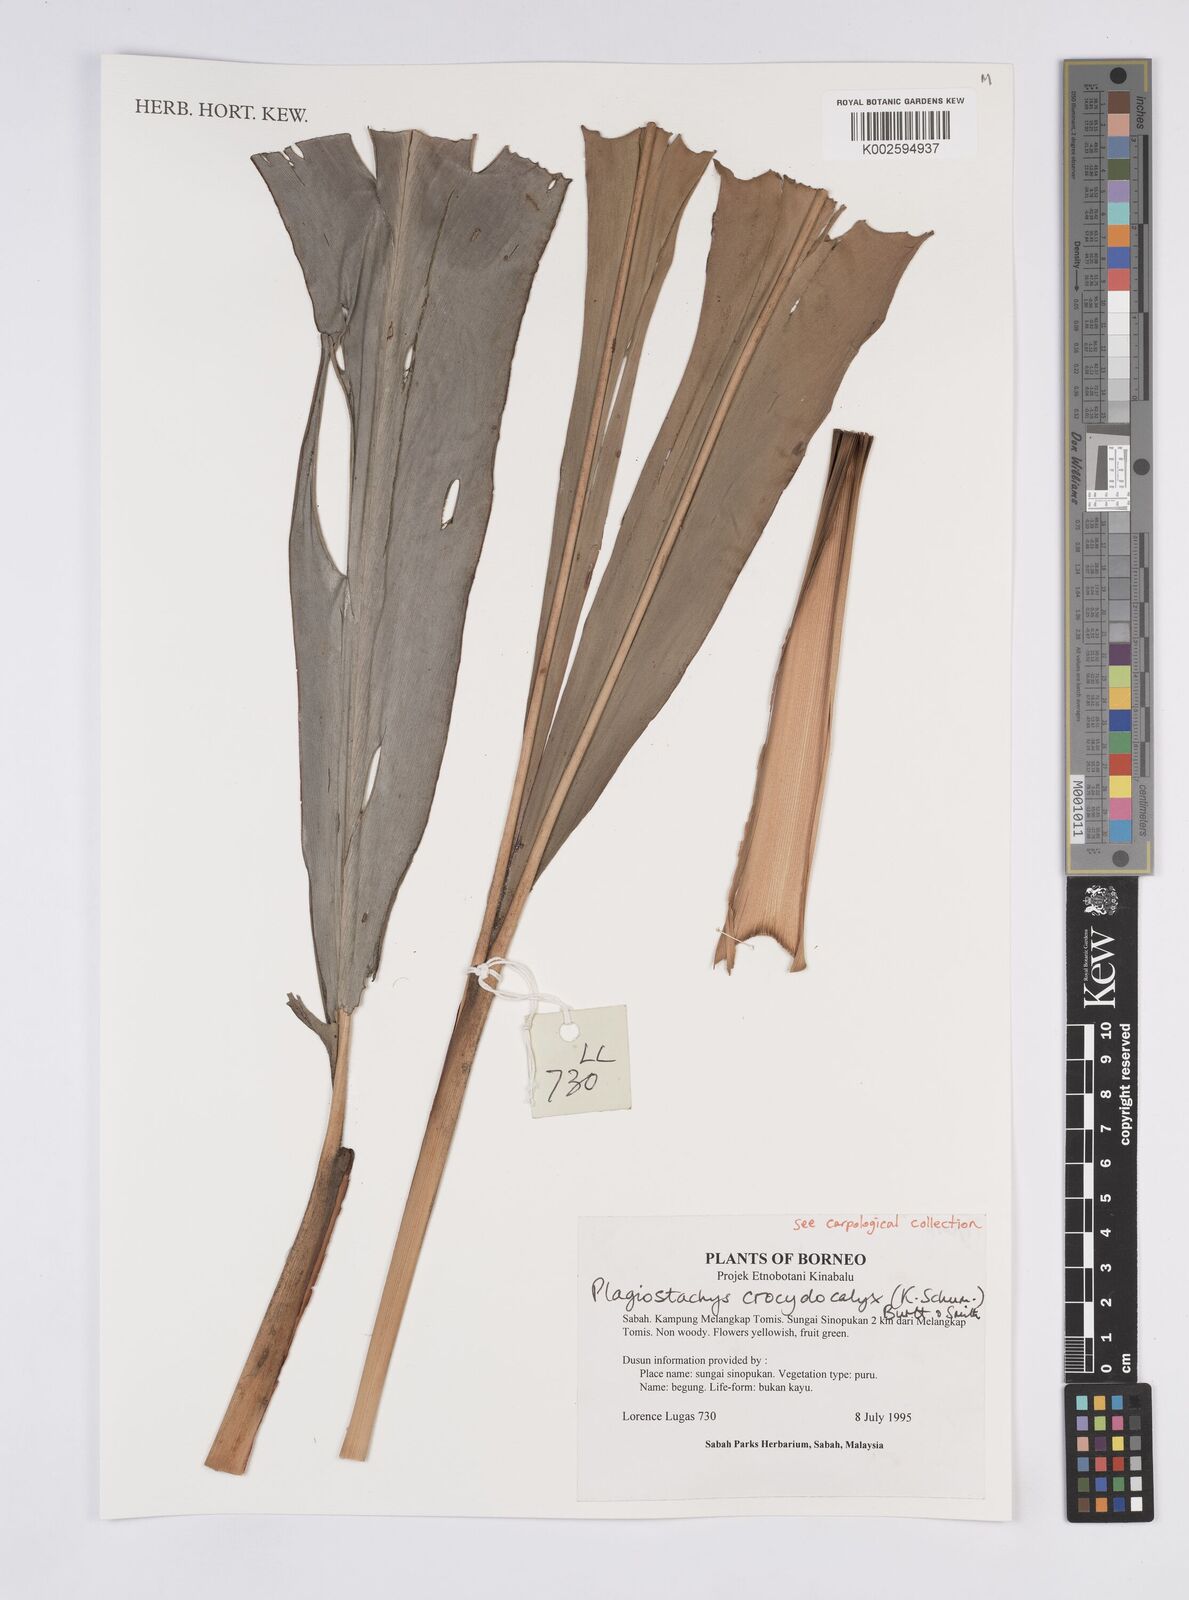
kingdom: Plantae
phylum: Tracheophyta
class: Liliopsida
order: Zingiberales
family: Zingiberaceae
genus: Plagiostachys
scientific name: Plagiostachys crocydocalyx
